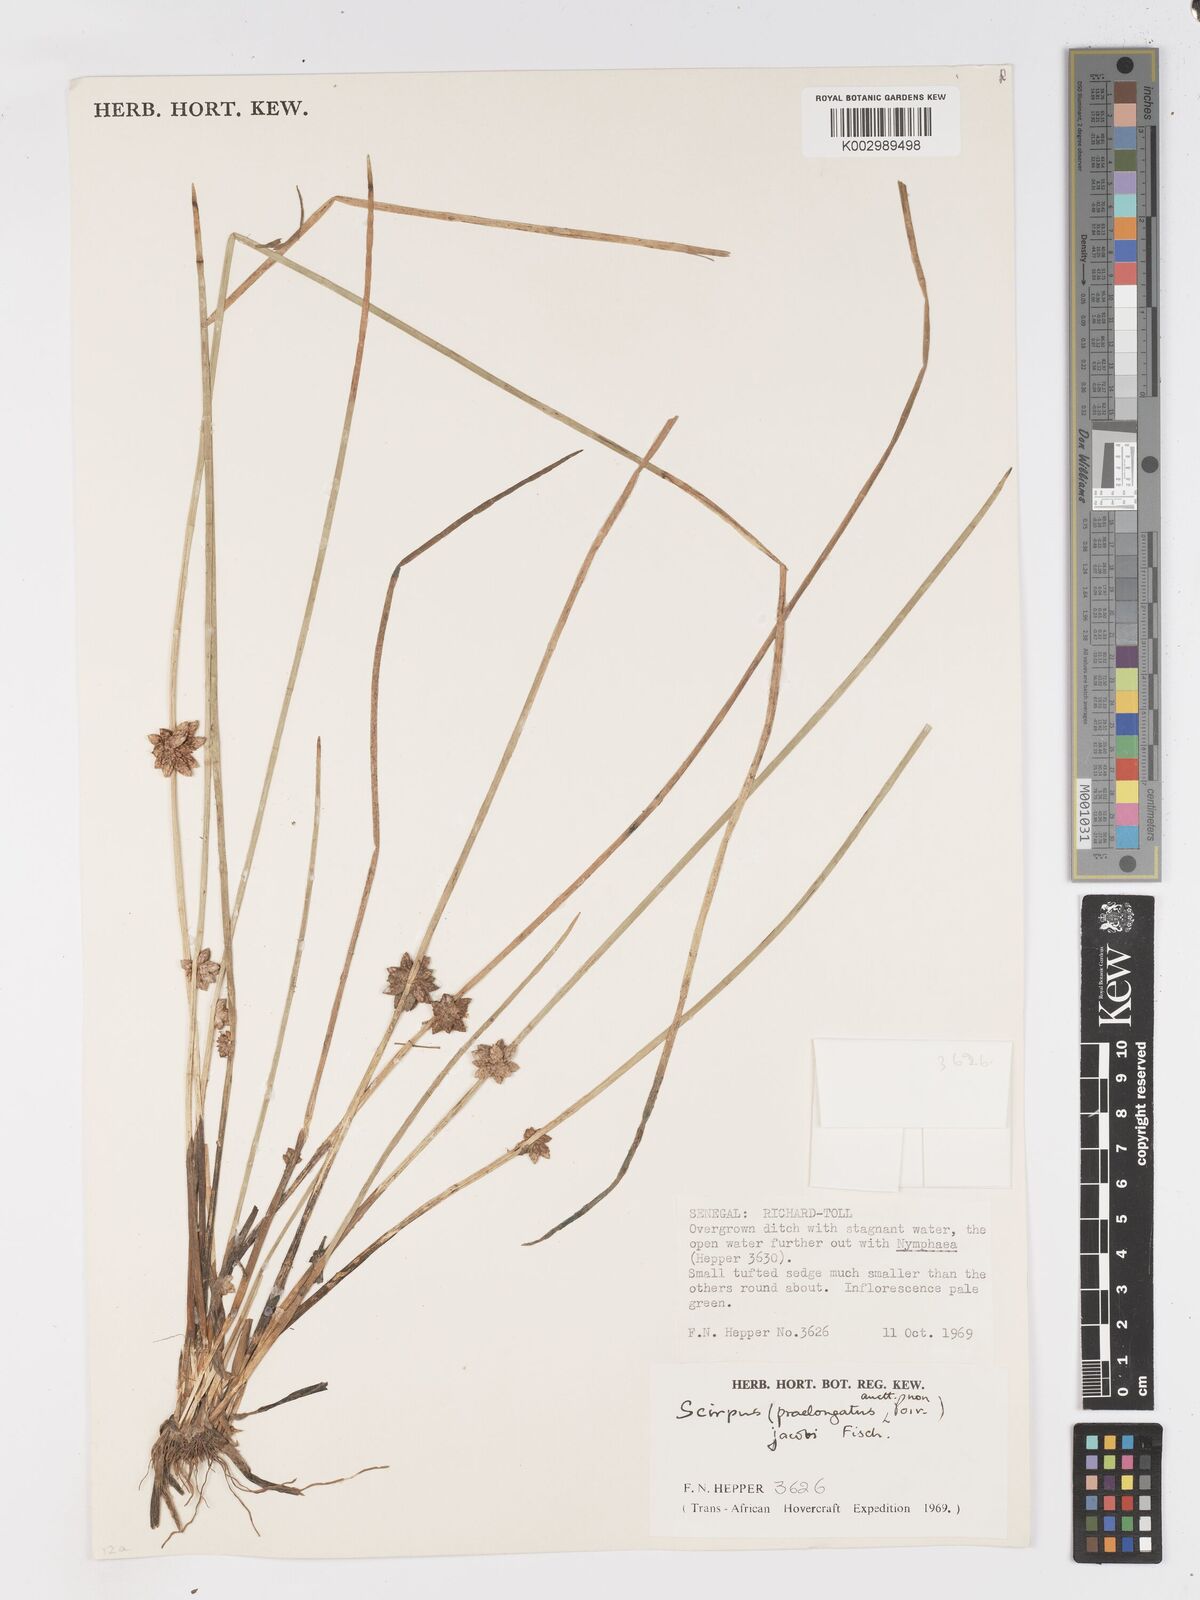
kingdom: Plantae
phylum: Tracheophyta
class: Liliopsida
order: Poales
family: Cyperaceae
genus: Schoenoplectiella
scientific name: Schoenoplectiella senegalensis
